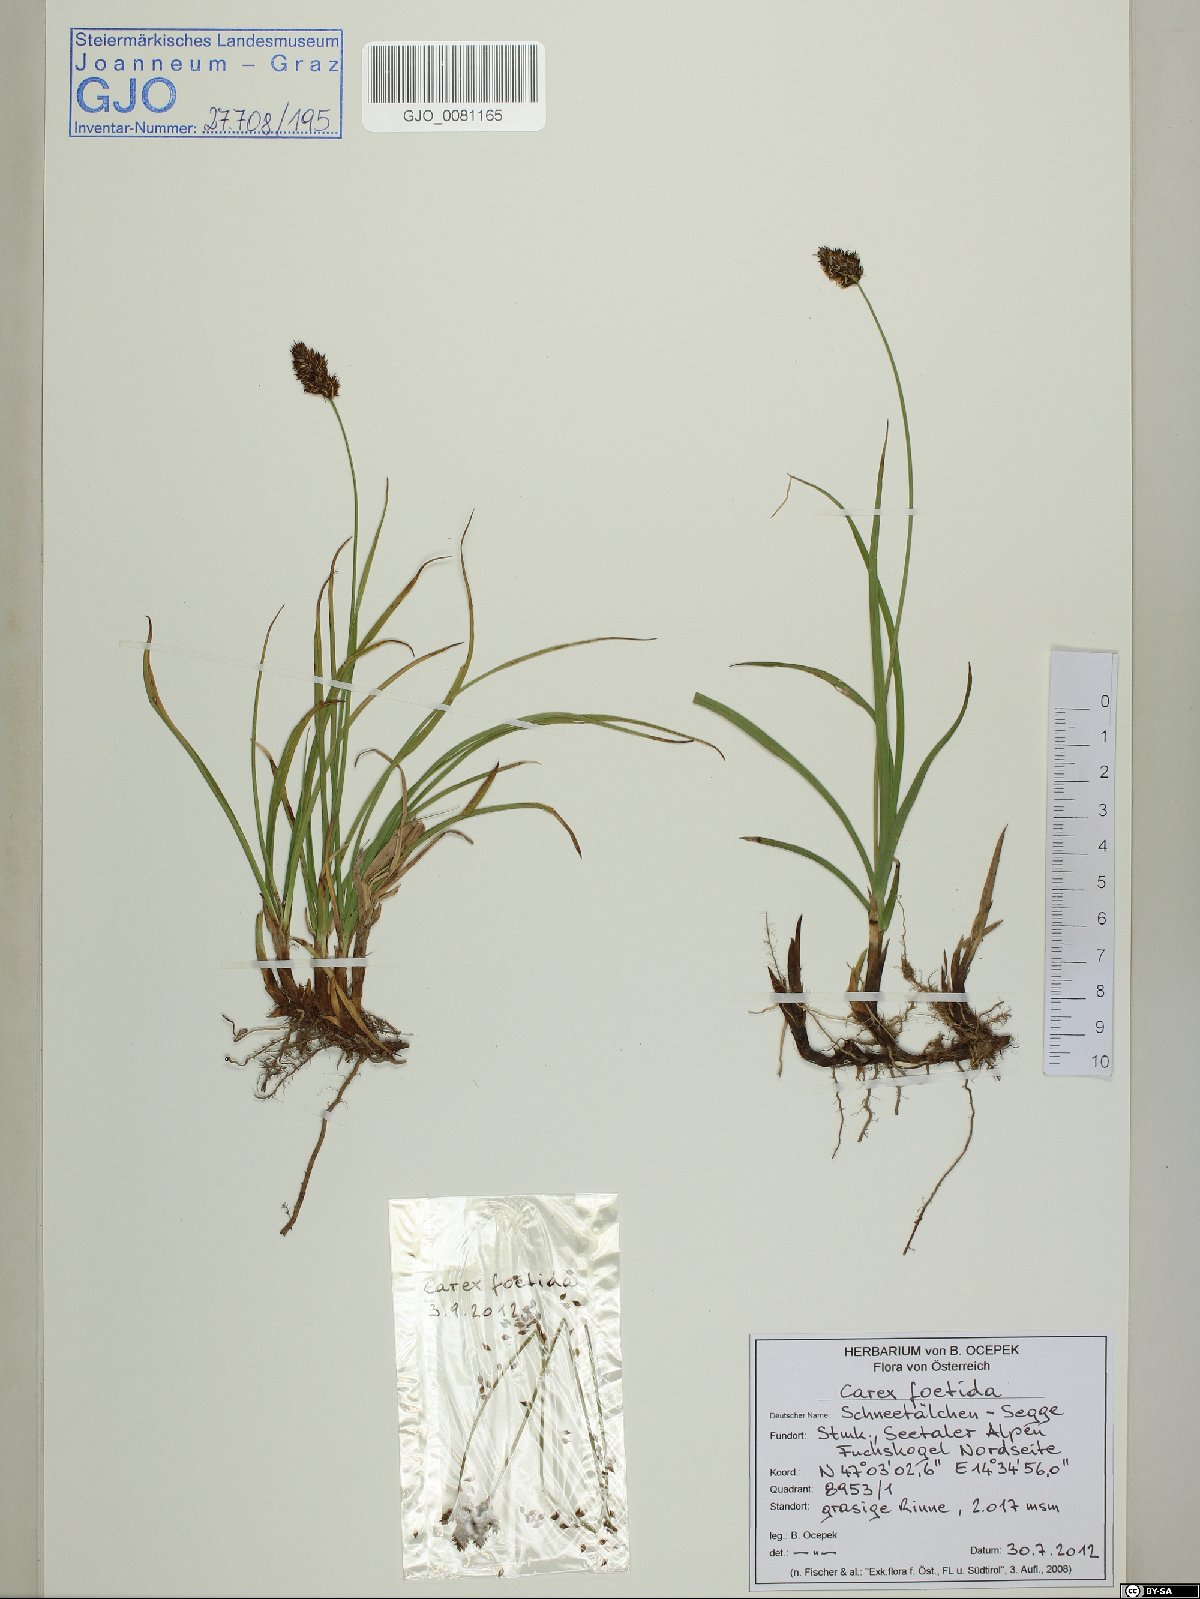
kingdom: Plantae
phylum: Tracheophyta
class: Liliopsida
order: Poales
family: Cyperaceae
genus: Carex
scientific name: Carex foetida
